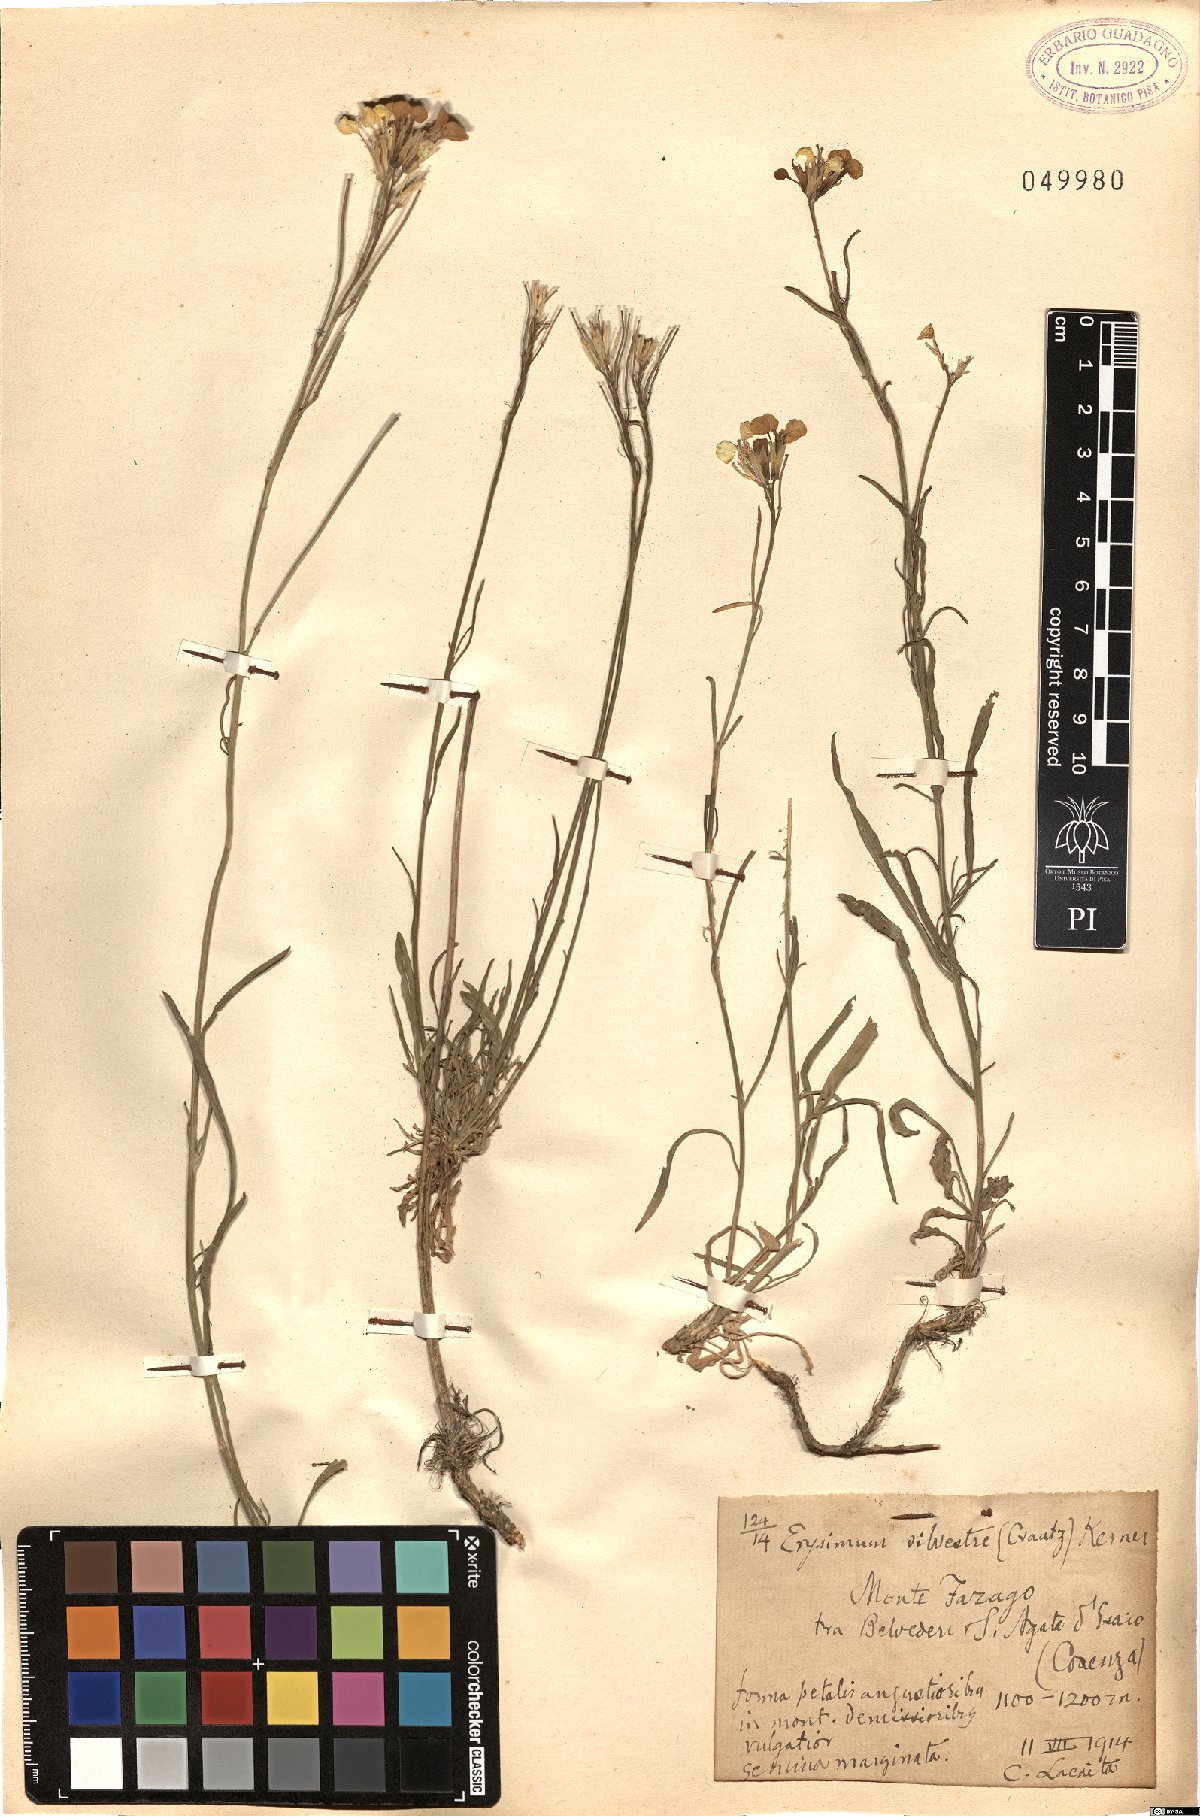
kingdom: Plantae
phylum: Tracheophyta
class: Magnoliopsida
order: Brassicales
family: Brassicaceae
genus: Erysimum
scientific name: Erysimum sylvestre
